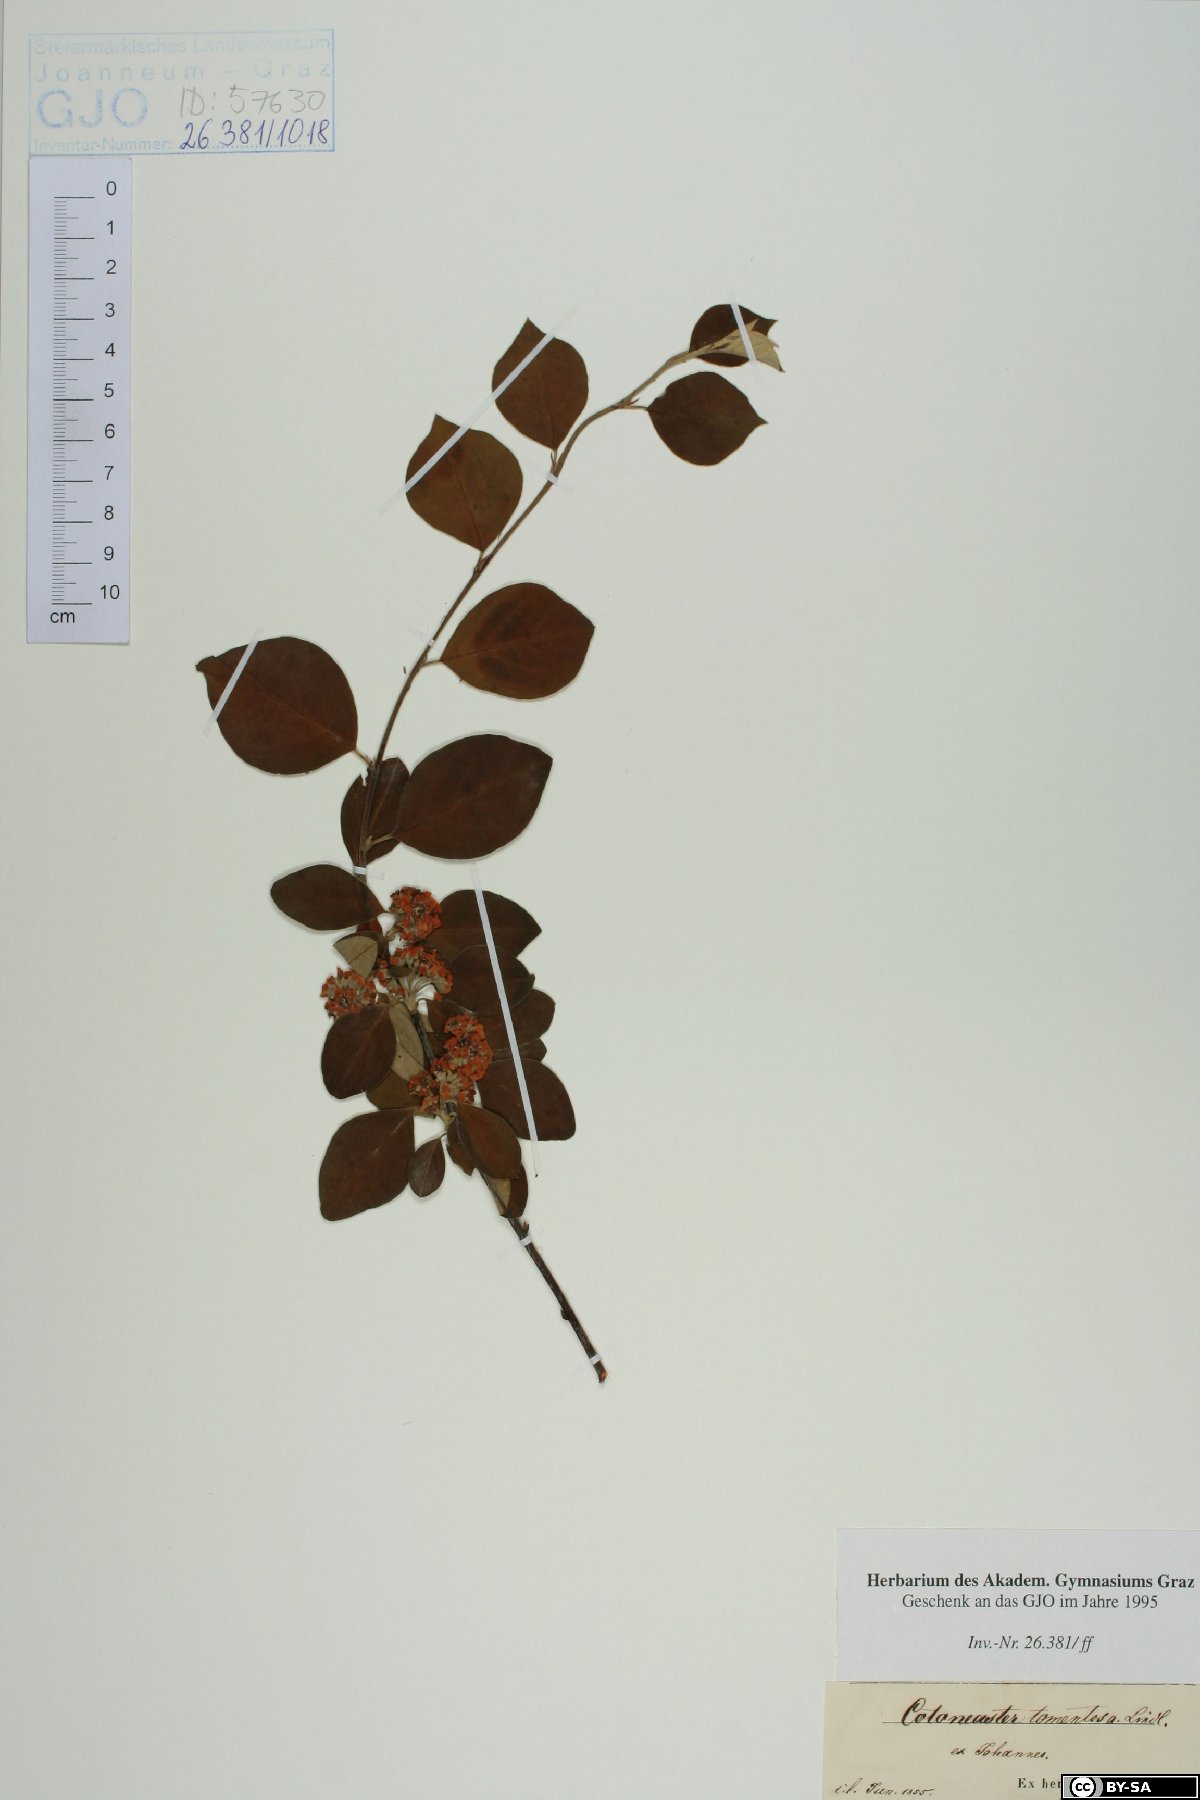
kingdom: Plantae
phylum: Tracheophyta
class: Magnoliopsida
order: Rosales
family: Rosaceae
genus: Cotoneaster
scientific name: Cotoneaster tomentosus
